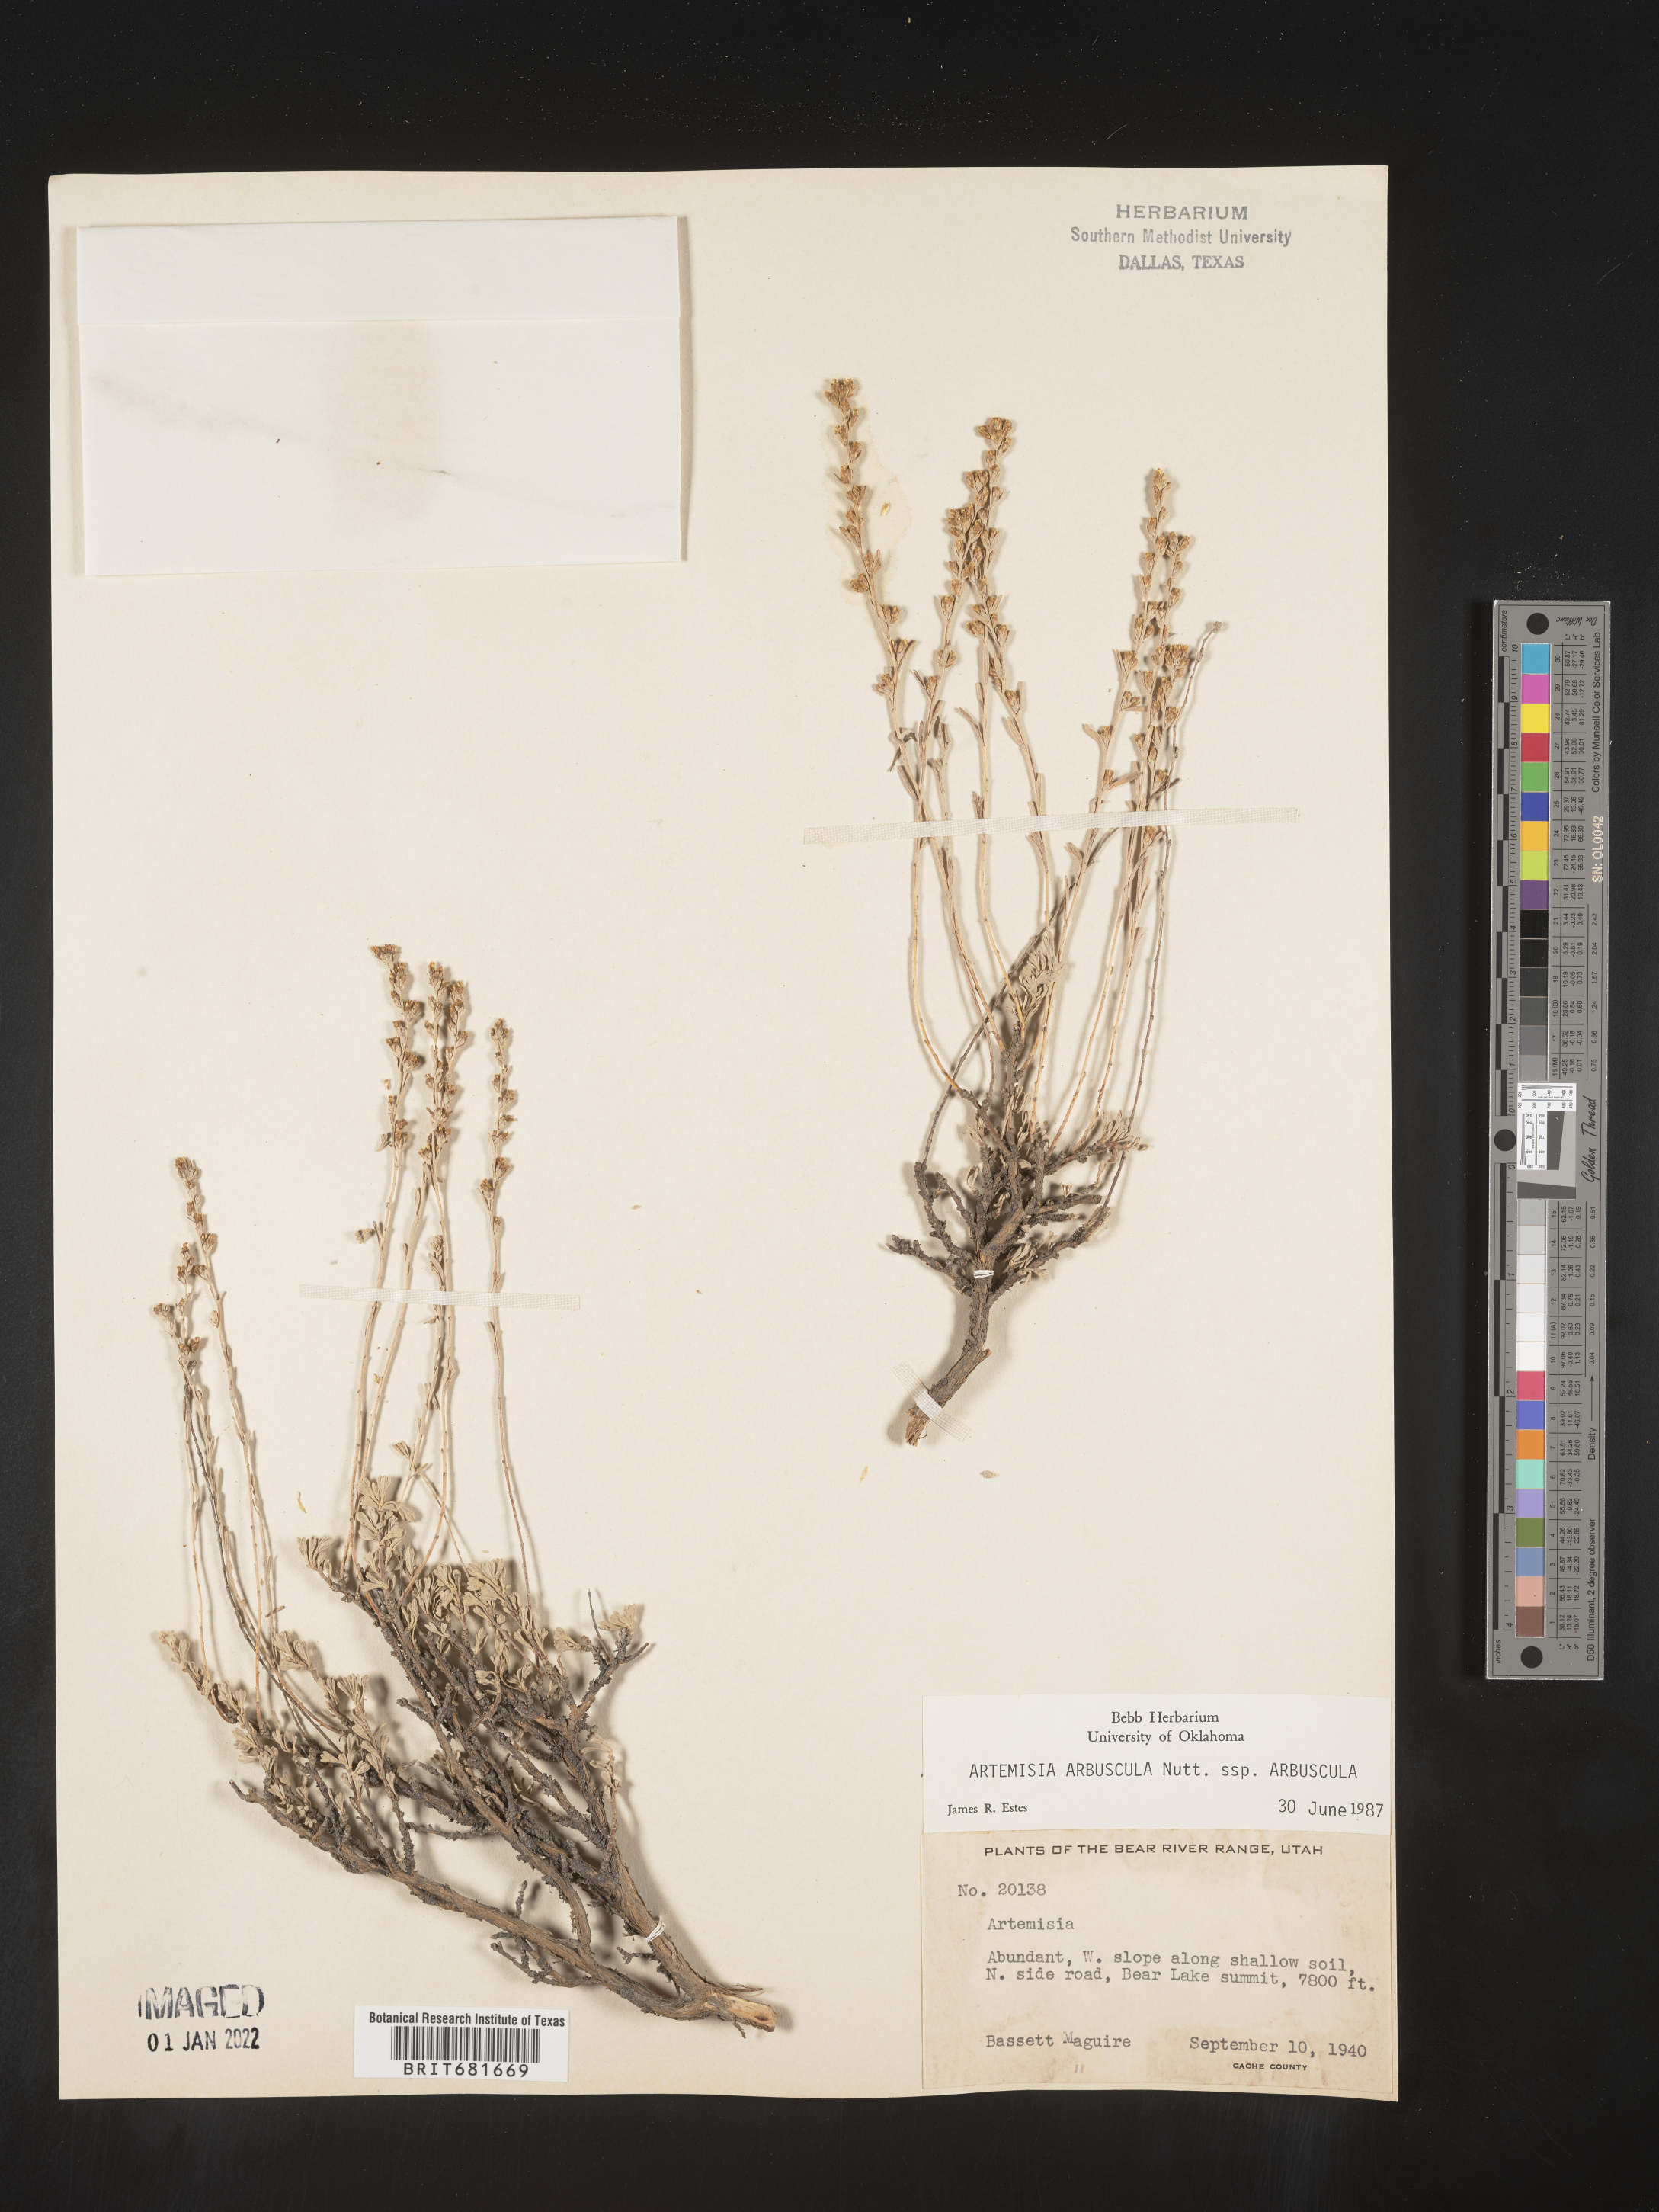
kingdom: Plantae
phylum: Tracheophyta
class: Magnoliopsida
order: Asterales
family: Asteraceae
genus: Artemisia
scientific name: Artemisia arbuscula
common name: Sagebrush
